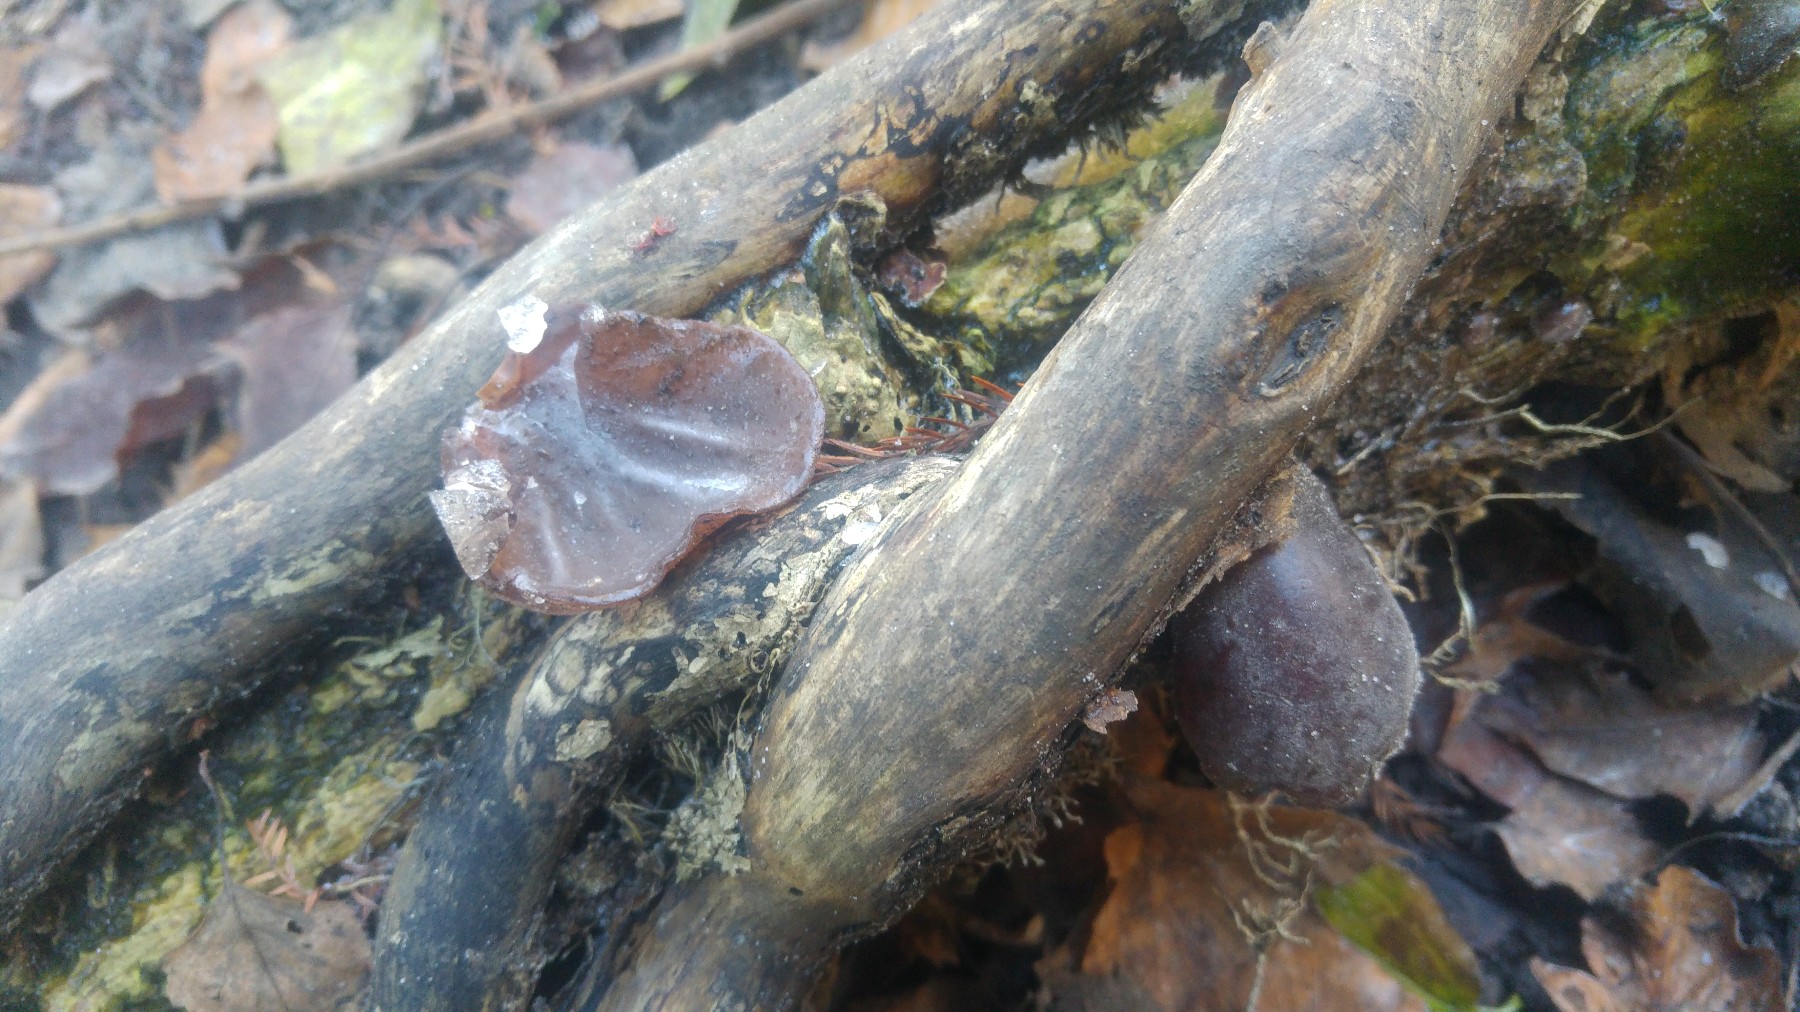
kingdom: Fungi
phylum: Basidiomycota
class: Agaricomycetes
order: Auriculariales
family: Auriculariaceae
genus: Auricularia
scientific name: Auricularia auricula-judae
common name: almindelig judasøre
